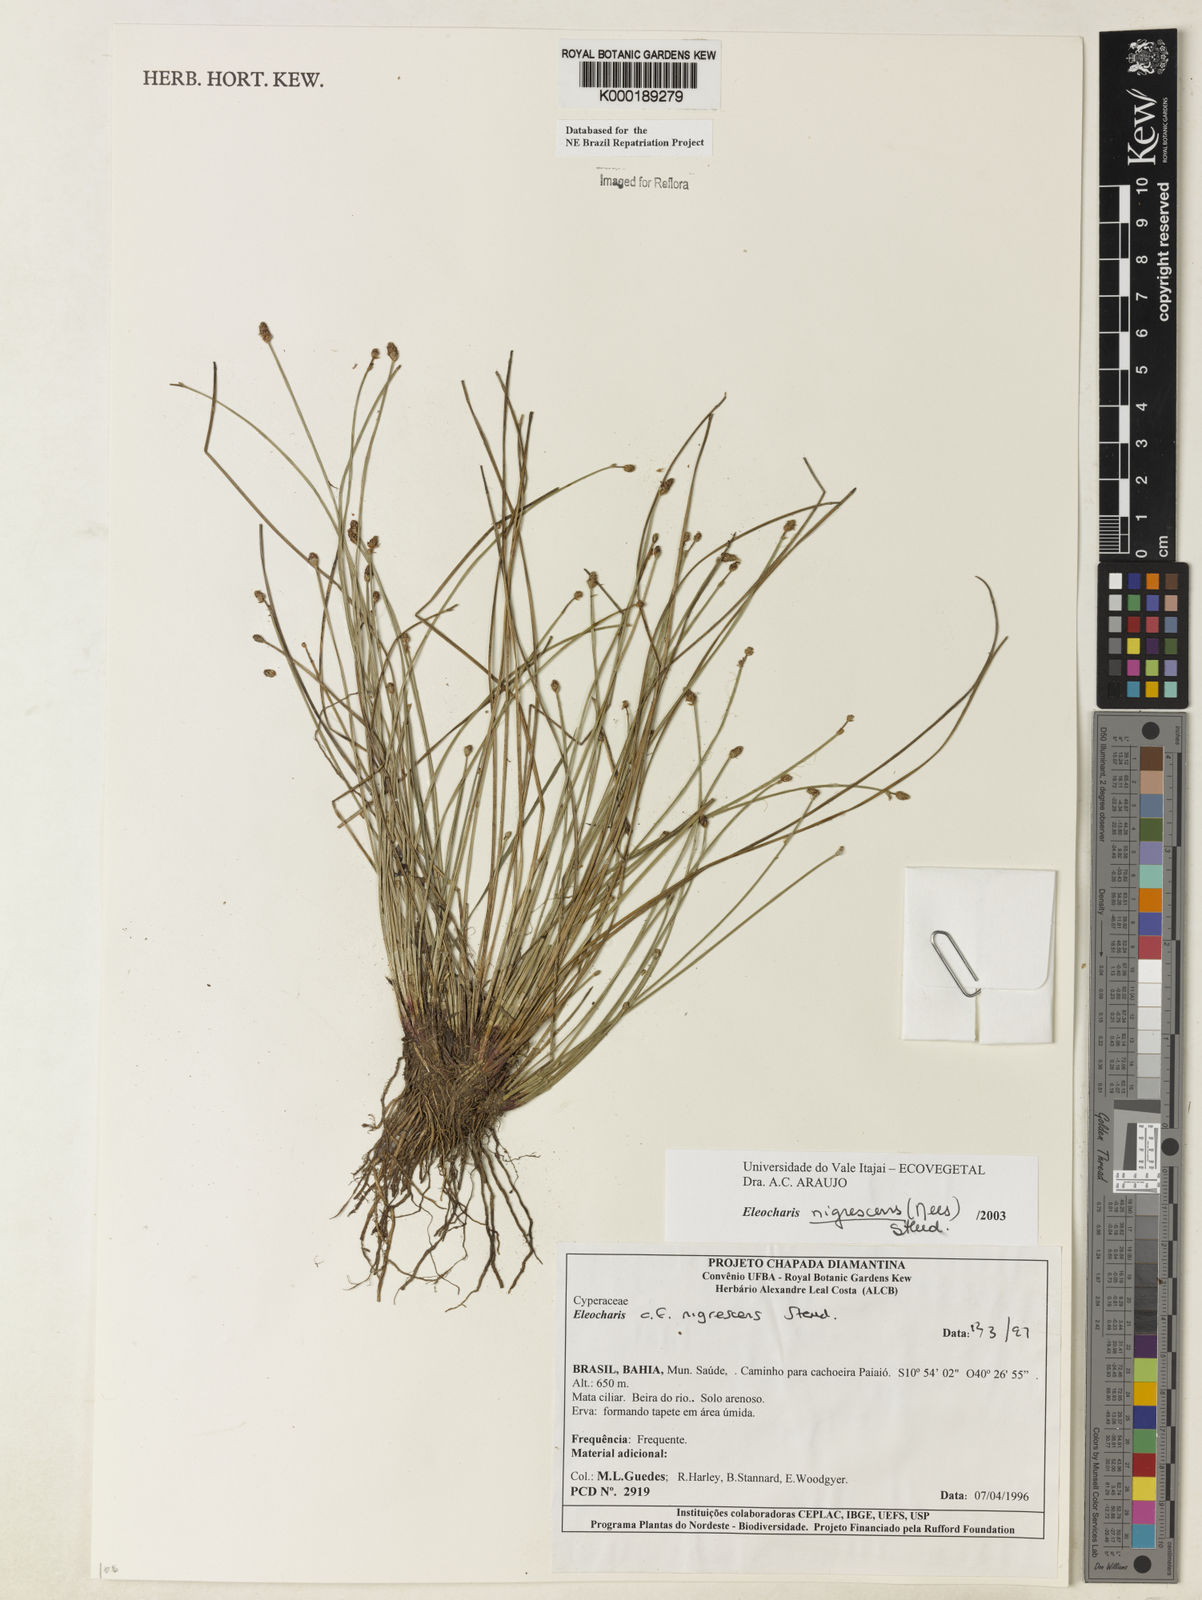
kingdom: Plantae
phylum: Tracheophyta
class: Liliopsida
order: Poales
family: Cyperaceae
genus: Eleocharis
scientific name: Eleocharis
